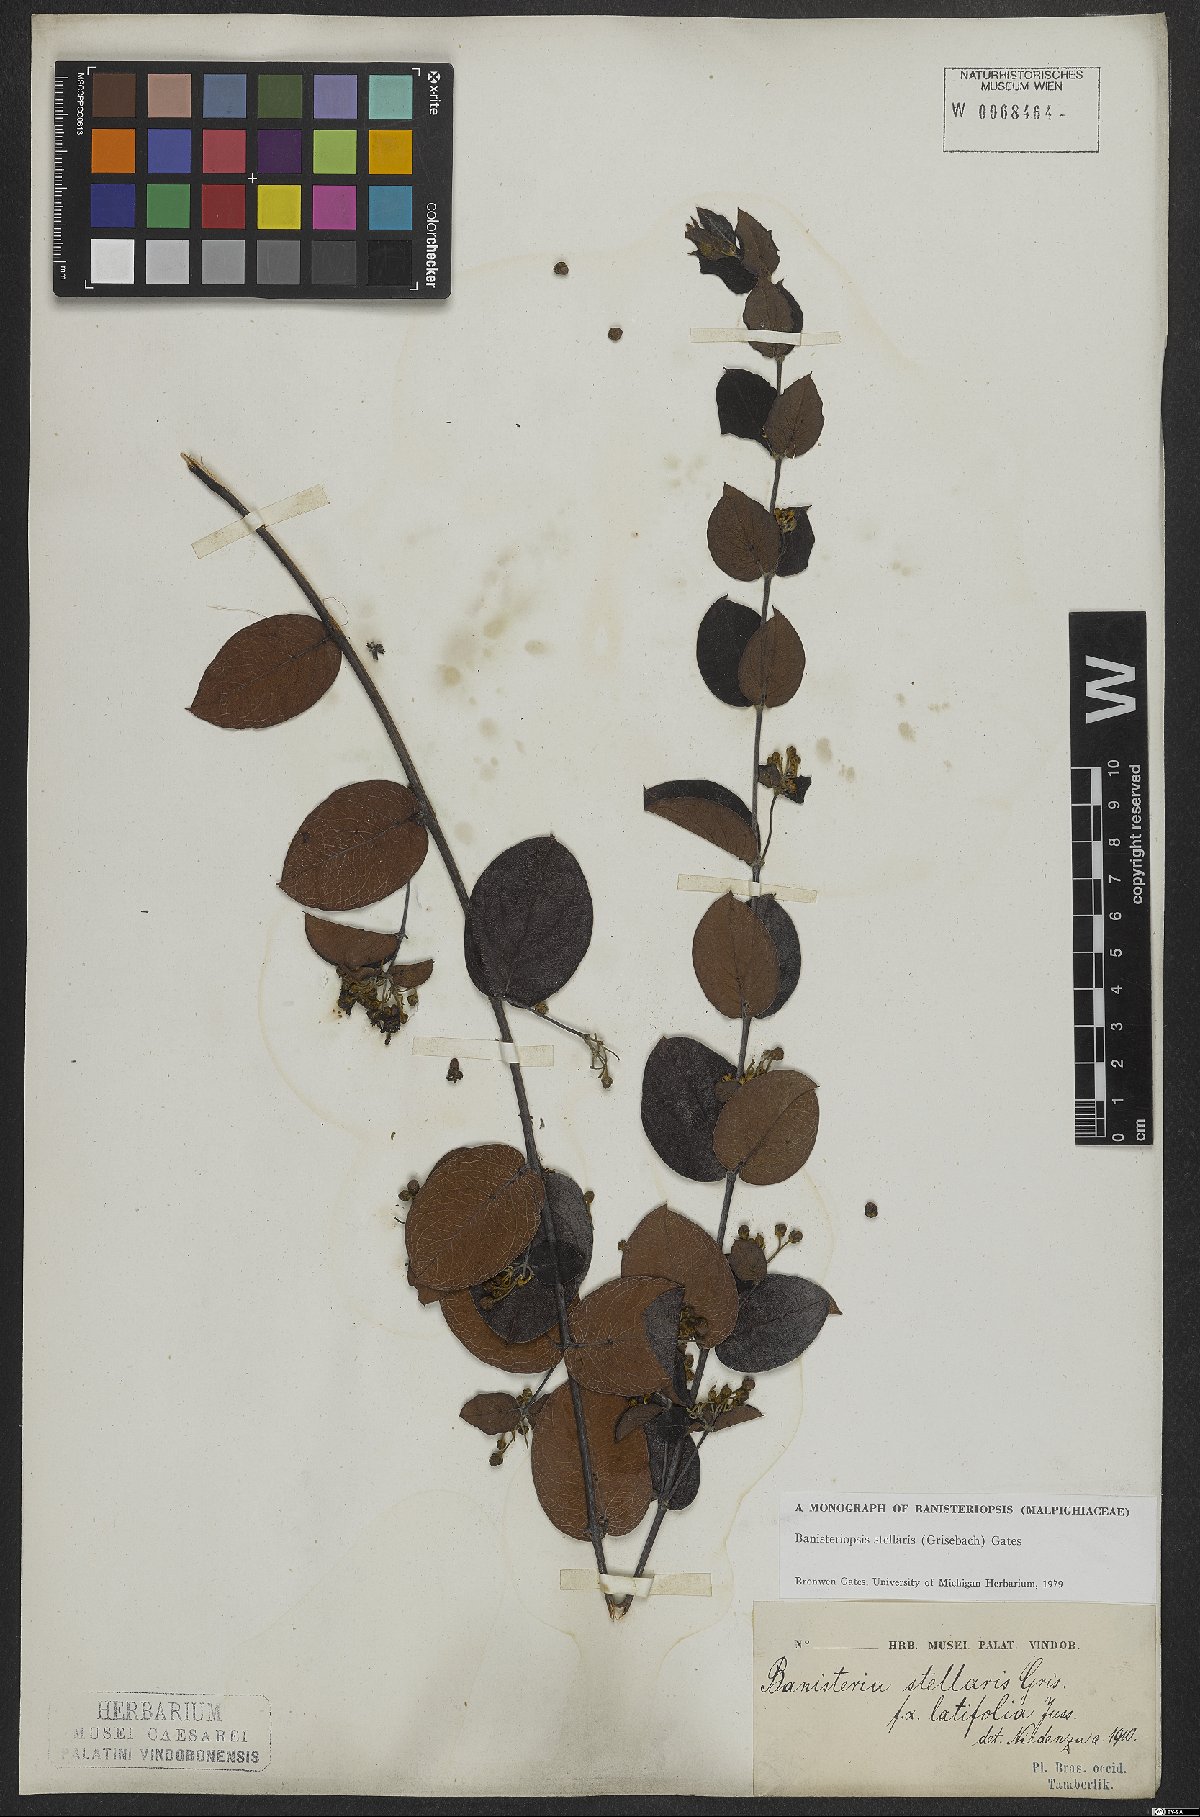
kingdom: Plantae
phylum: Tracheophyta
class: Magnoliopsida
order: Malpighiales
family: Malpighiaceae
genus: Banisteriopsis
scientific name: Banisteriopsis stellaris
